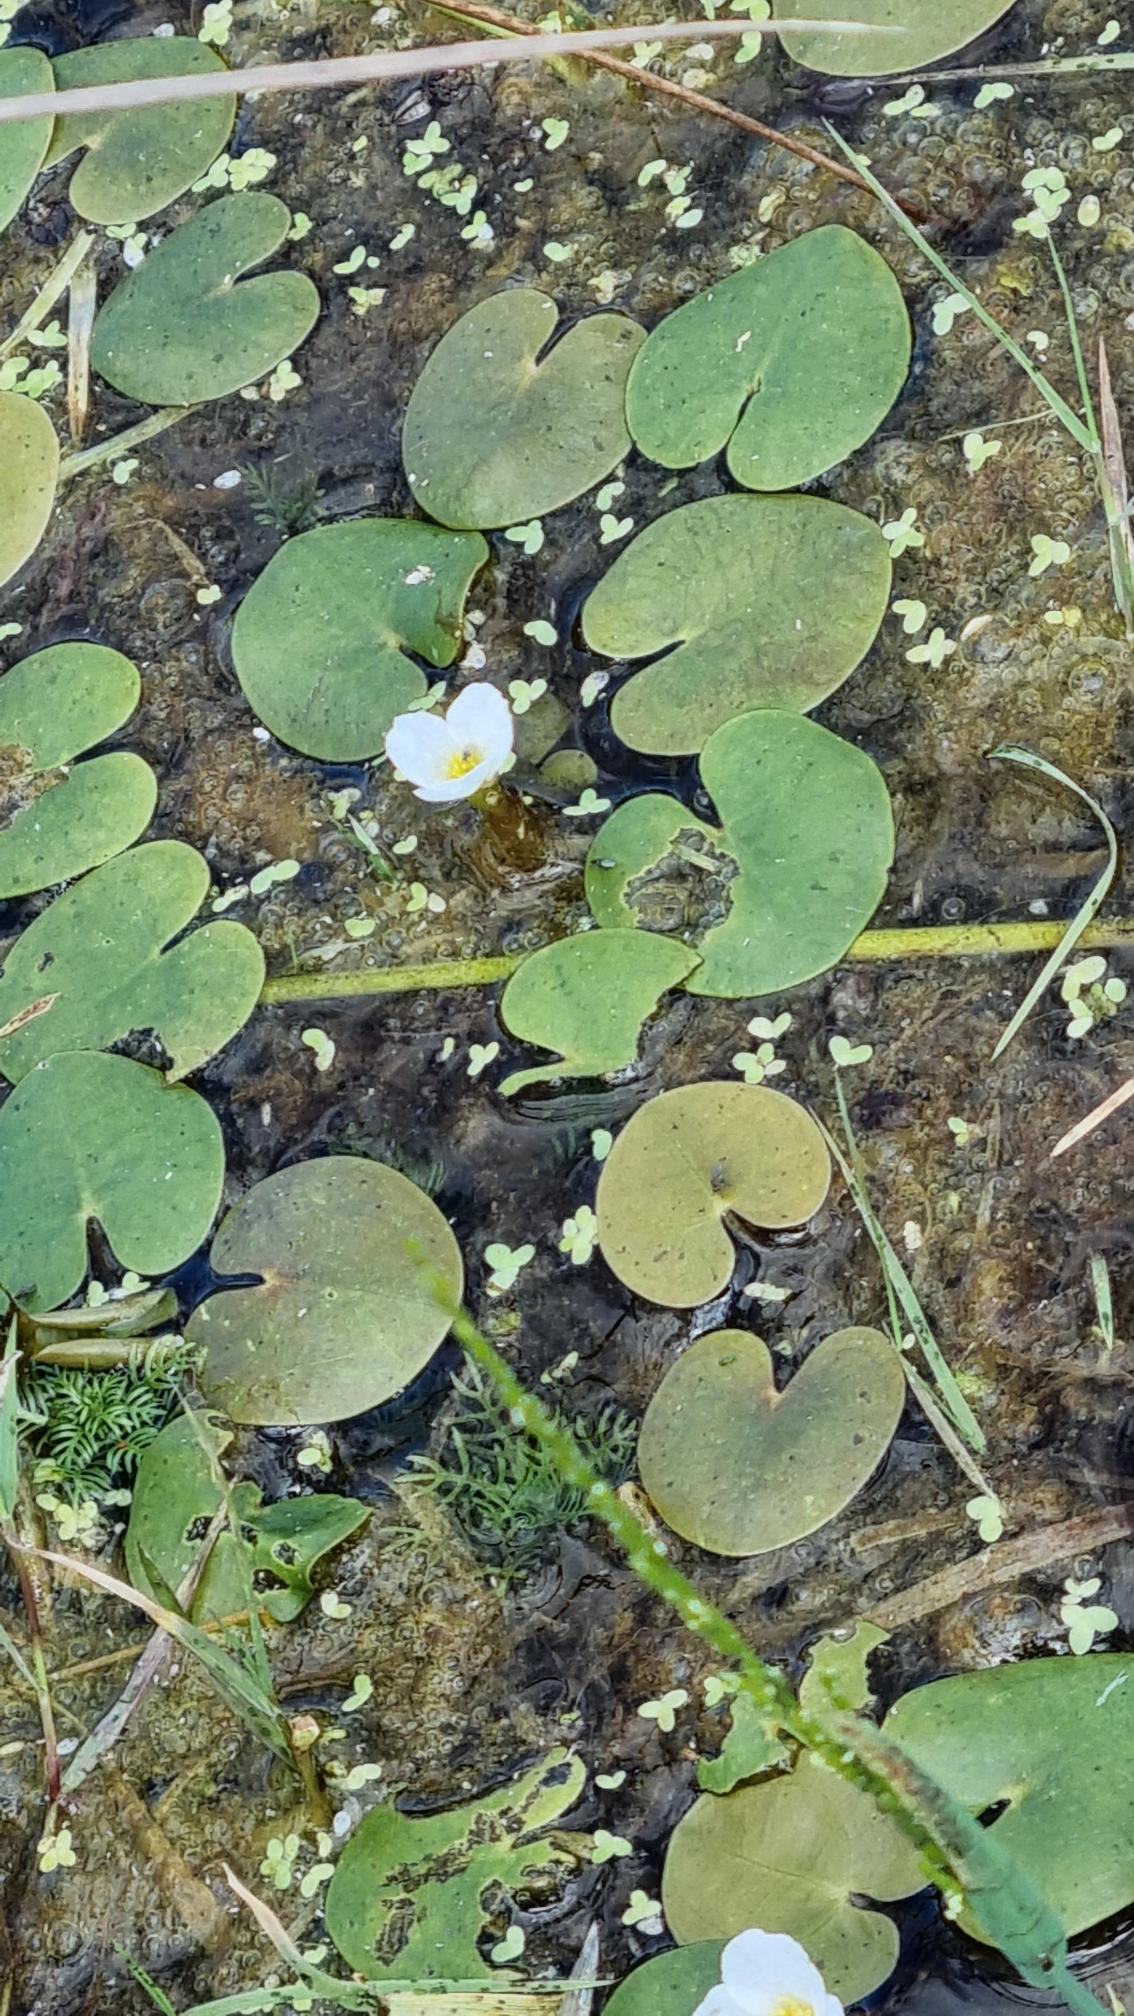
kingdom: Plantae
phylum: Tracheophyta
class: Liliopsida
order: Alismatales
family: Hydrocharitaceae
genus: Hydrocharis
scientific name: Hydrocharis morsus-ranae
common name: Frøbid
